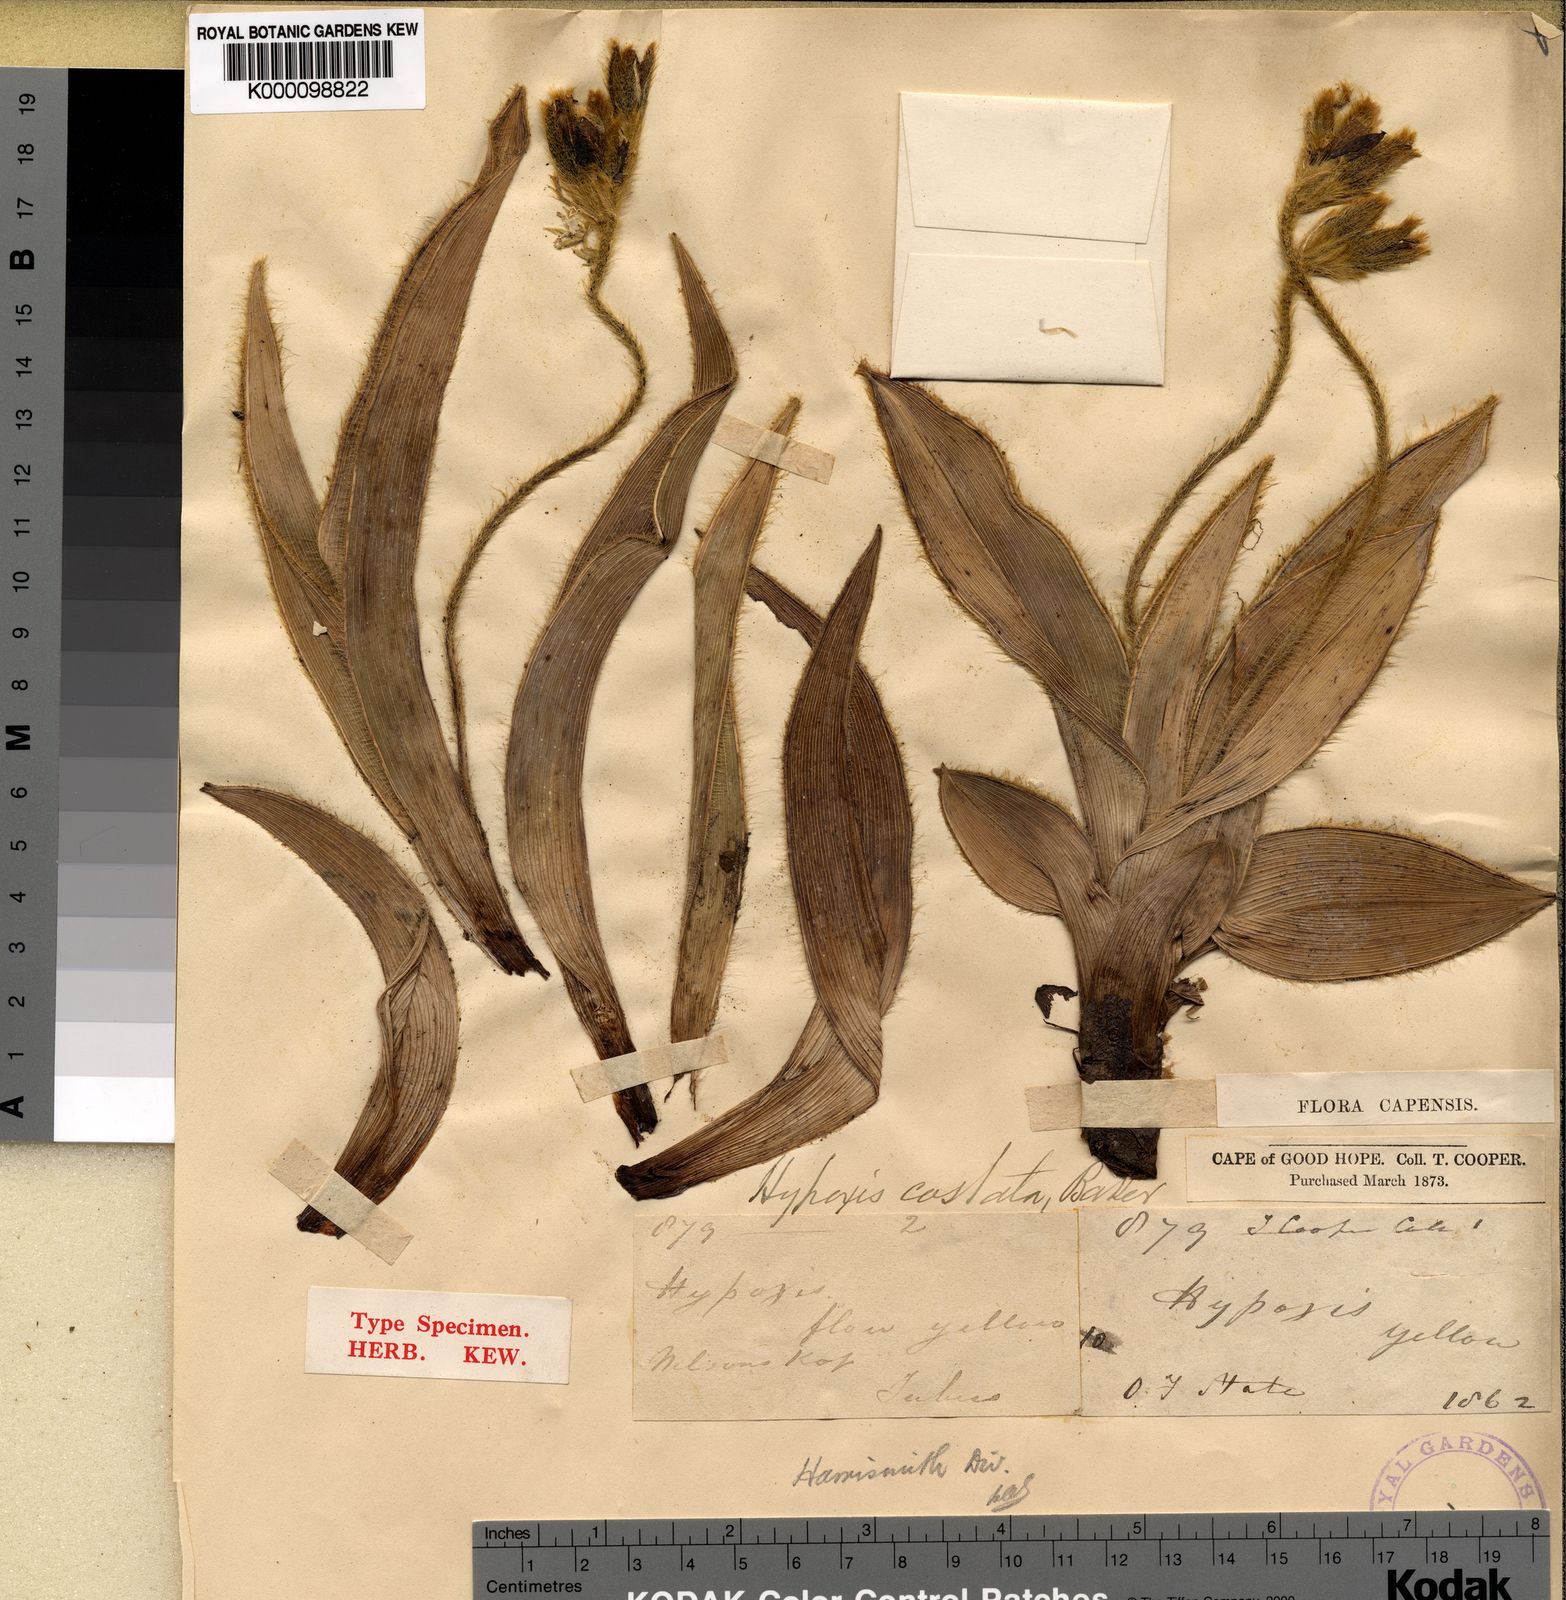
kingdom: Plantae
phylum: Tracheophyta
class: Liliopsida
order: Asparagales
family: Hypoxidaceae
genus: Hypoxis
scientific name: Hypoxis costata
